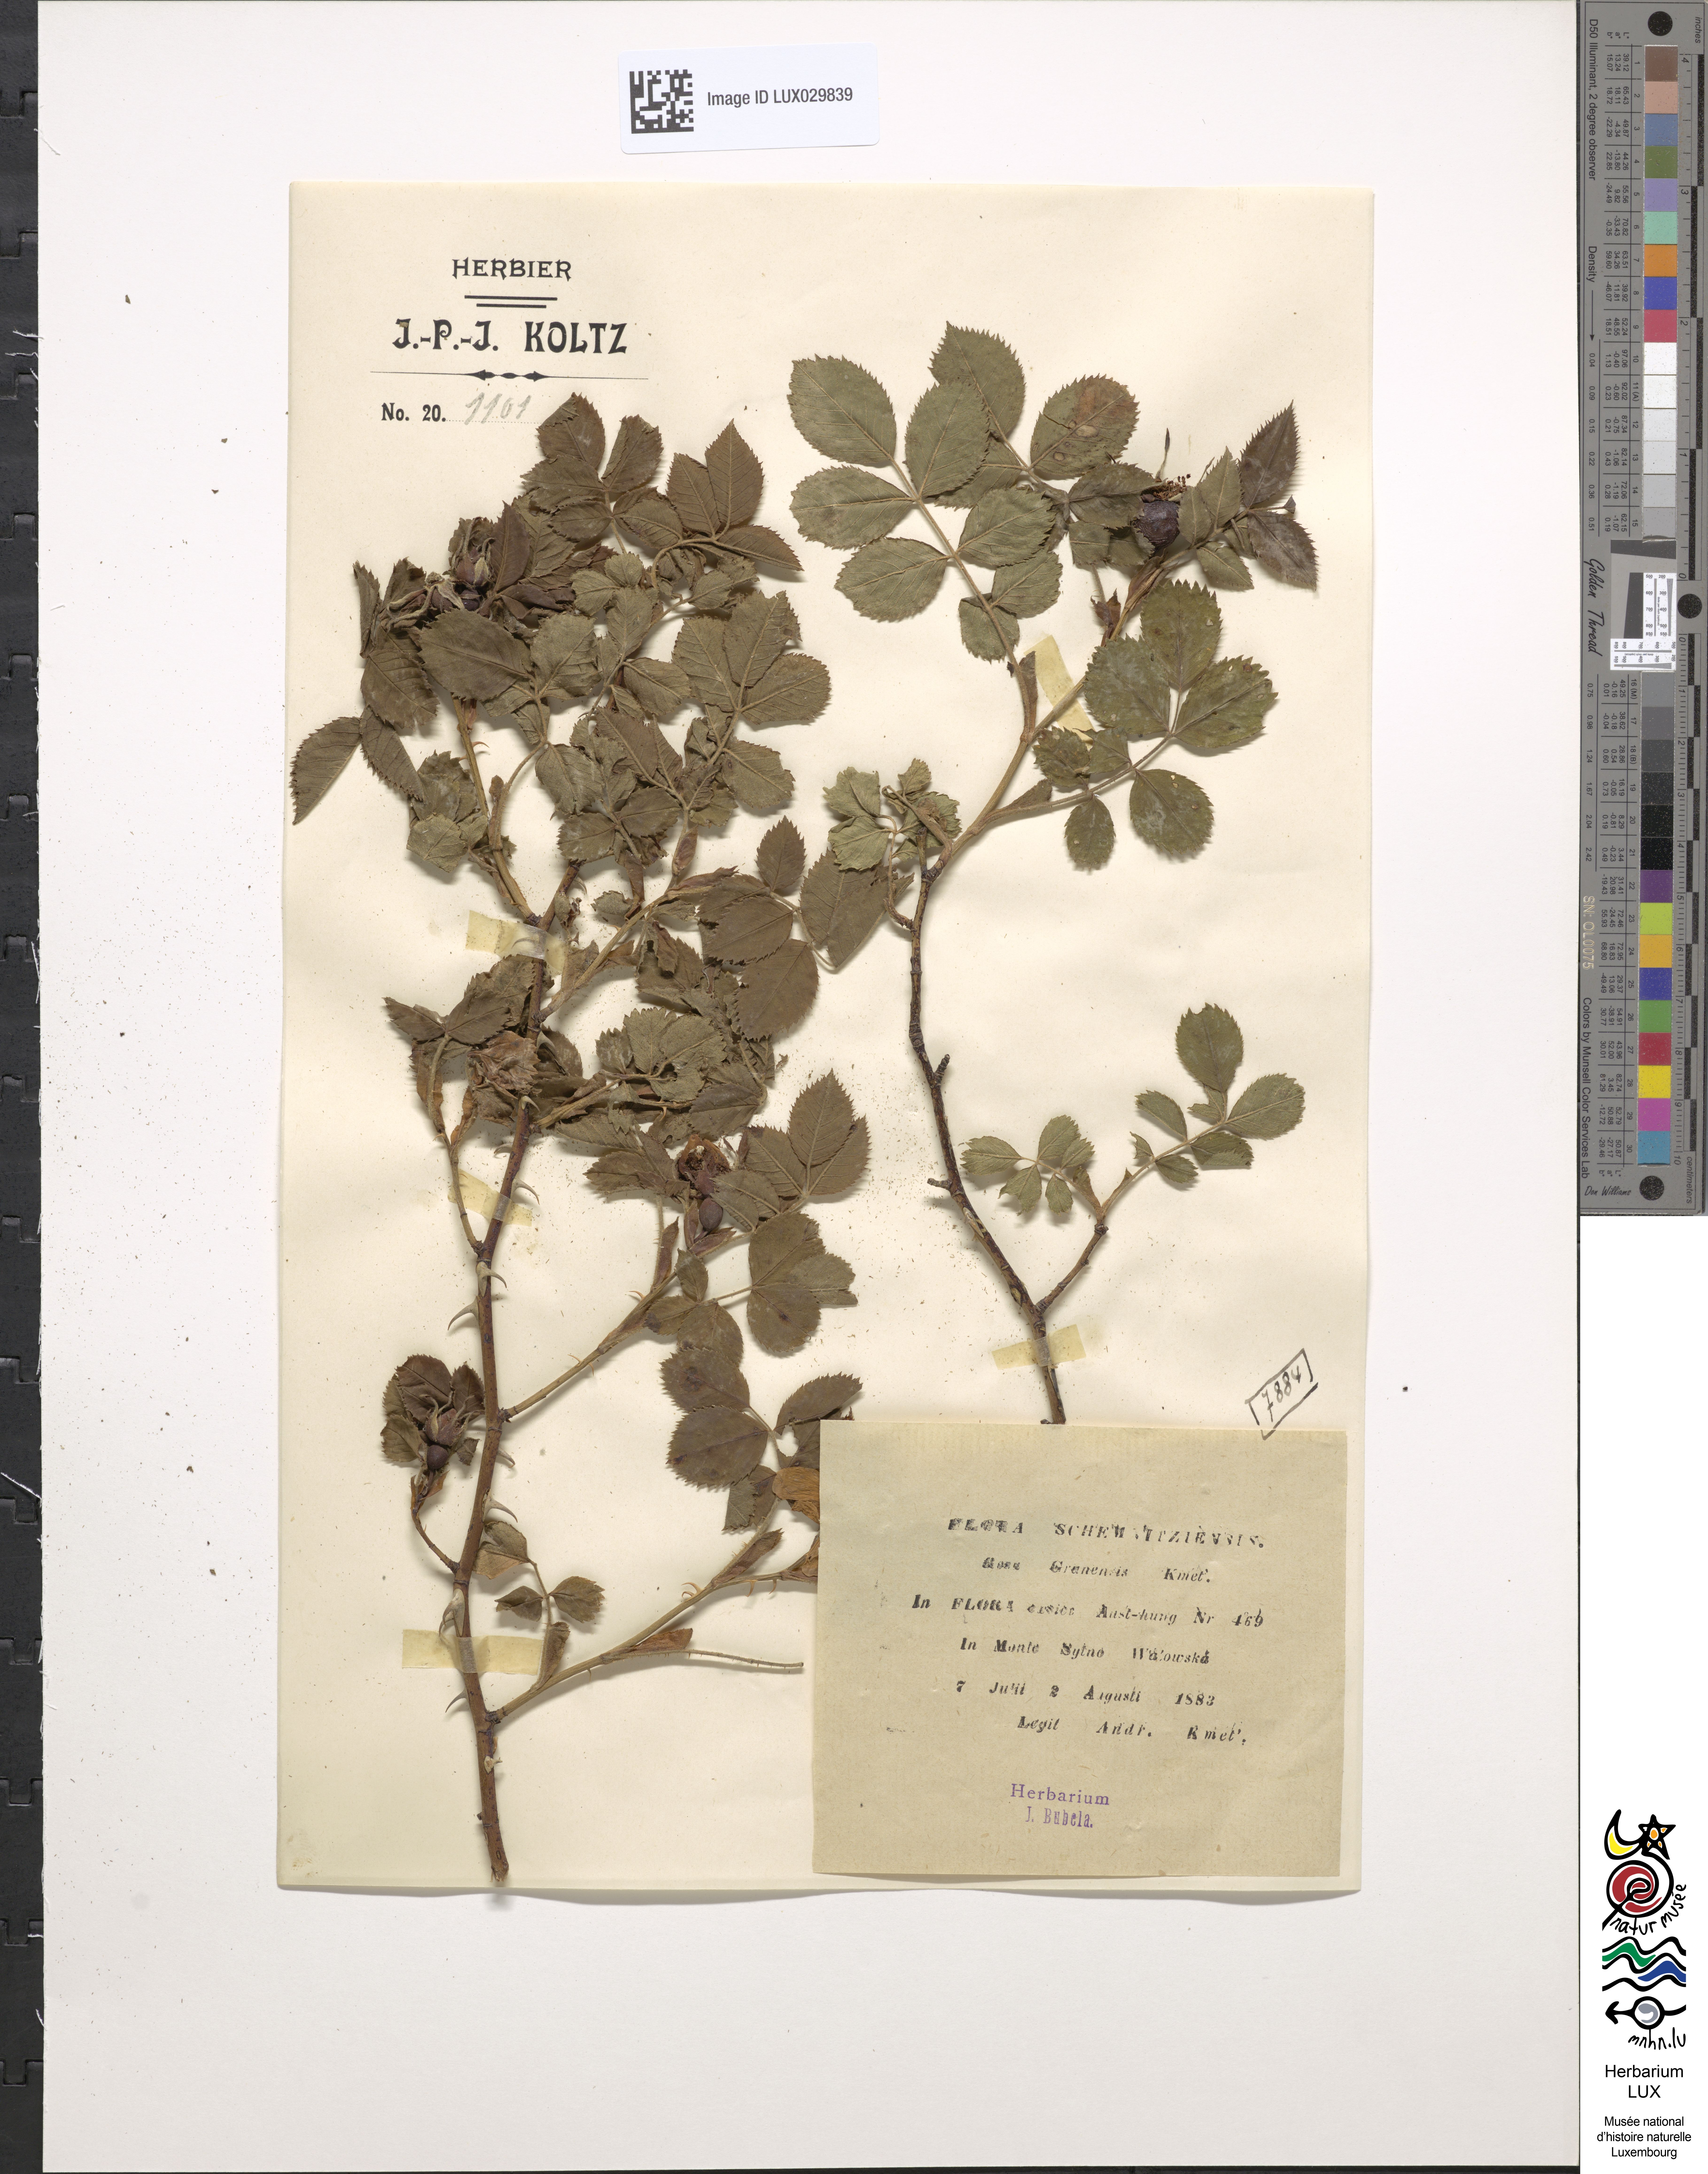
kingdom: Plantae
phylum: Tracheophyta
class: Magnoliopsida
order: Rosales
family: Rosaceae
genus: Rosa
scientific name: Rosa balsamica
